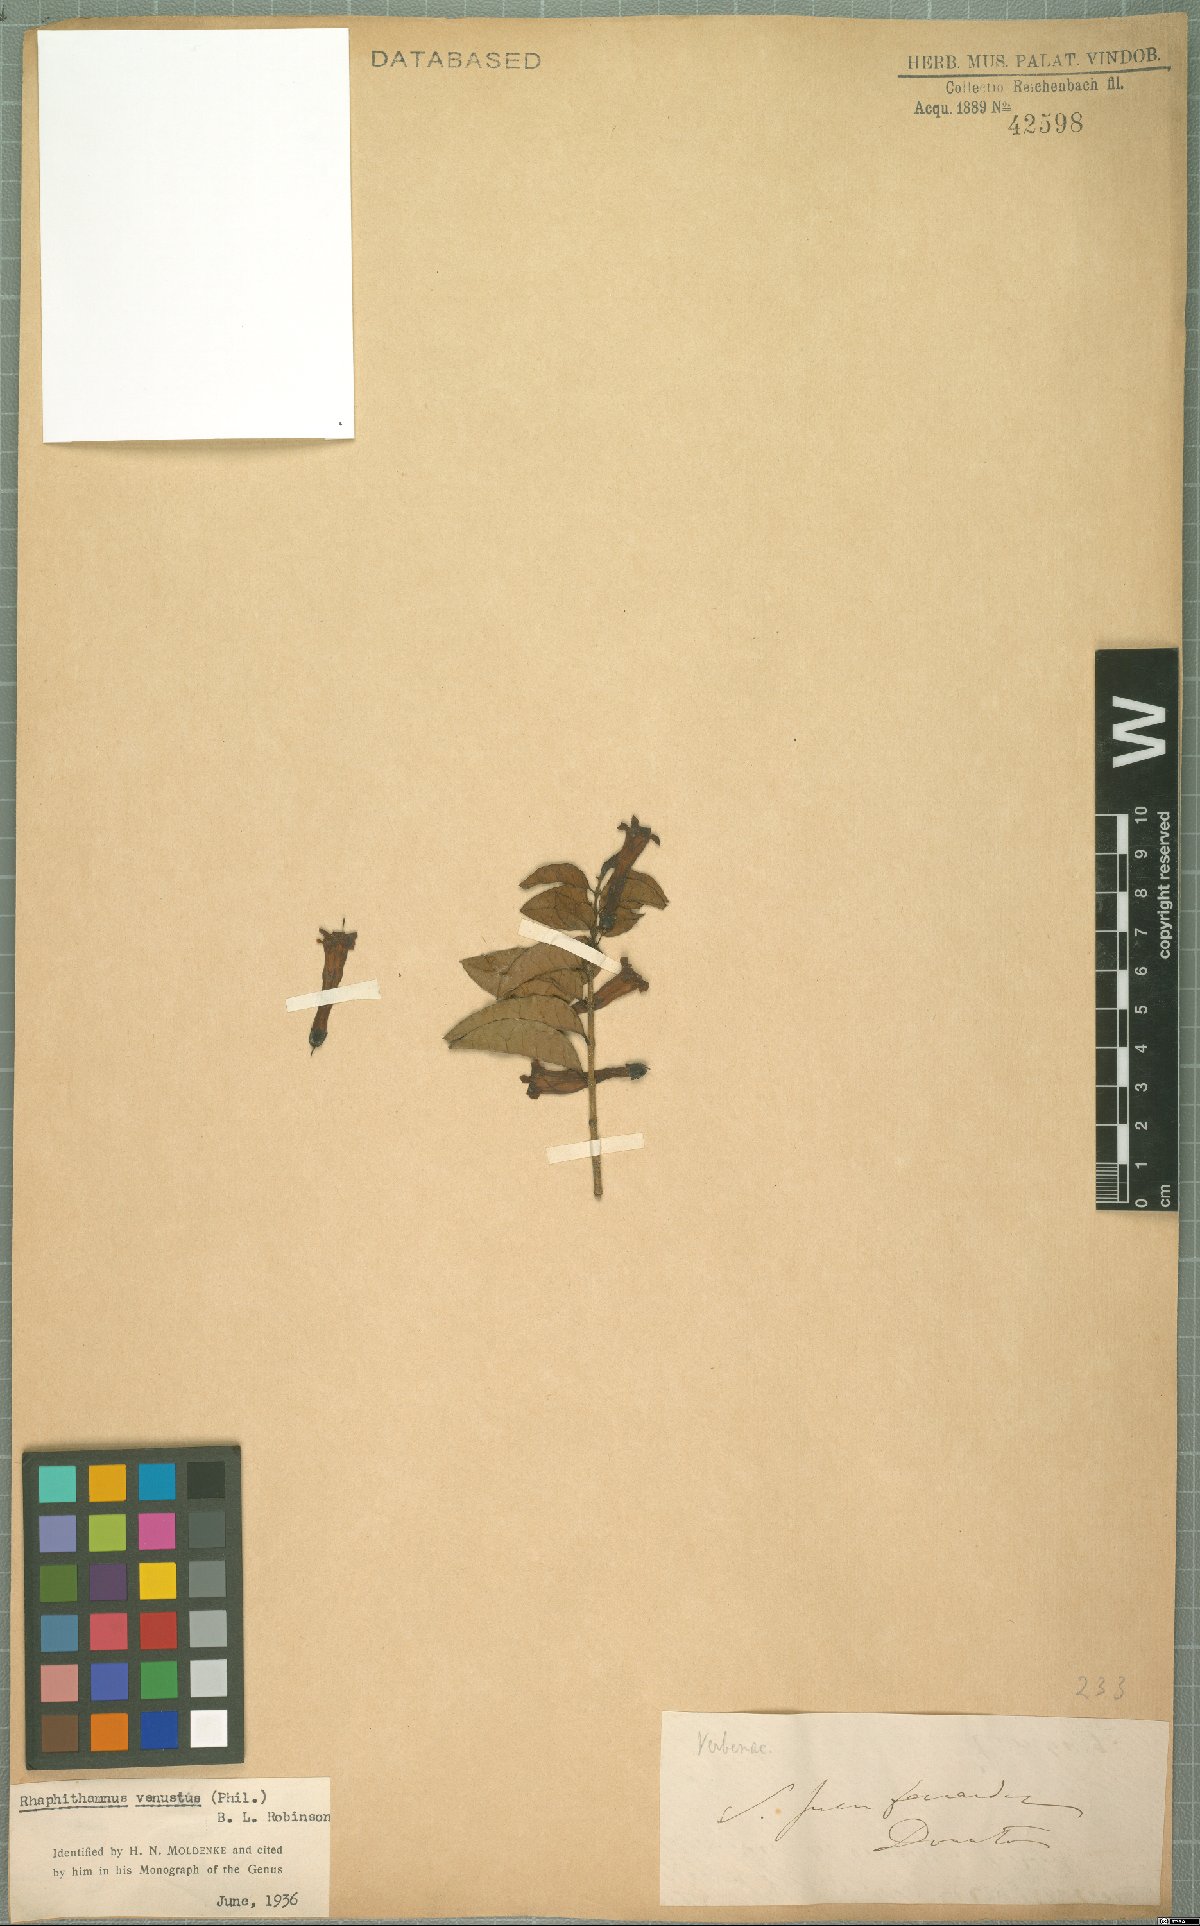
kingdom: Plantae
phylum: Tracheophyta
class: Magnoliopsida
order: Lamiales
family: Verbenaceae
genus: Rhaphithamnus
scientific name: Rhaphithamnus venustus
